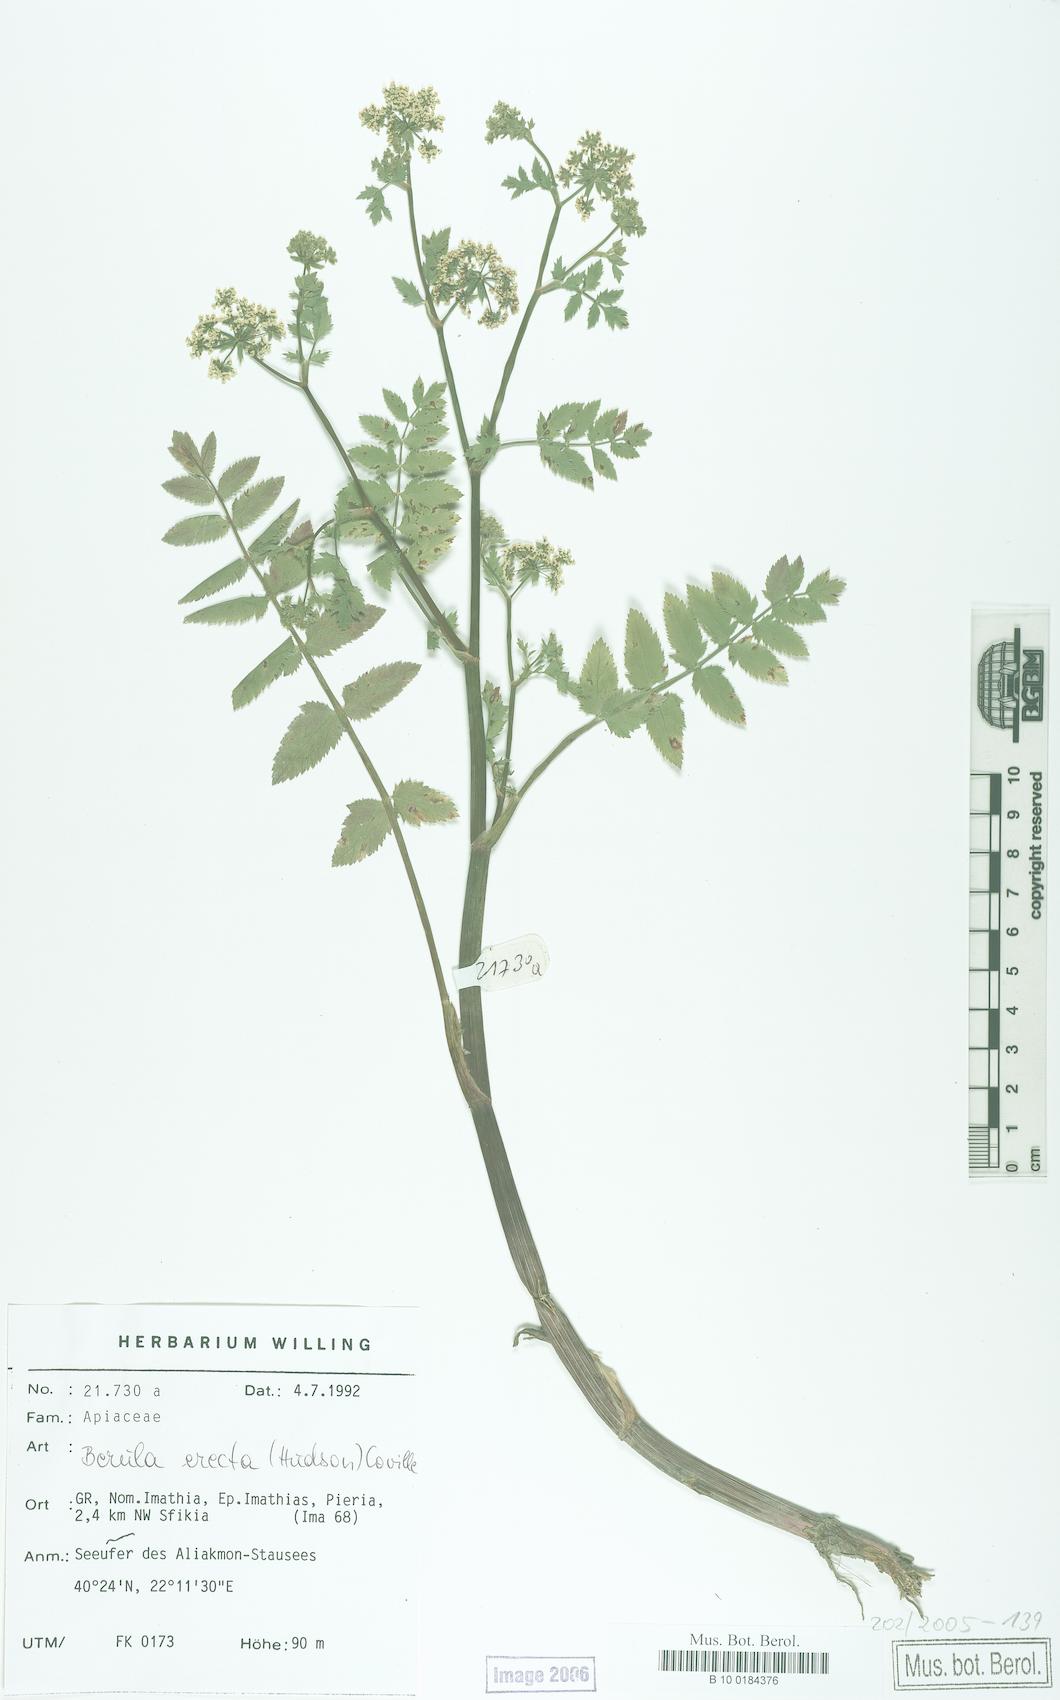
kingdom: Plantae
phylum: Tracheophyta
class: Magnoliopsida
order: Apiales
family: Apiaceae
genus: Berula
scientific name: Berula erecta
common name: Lesser water-parsnip
